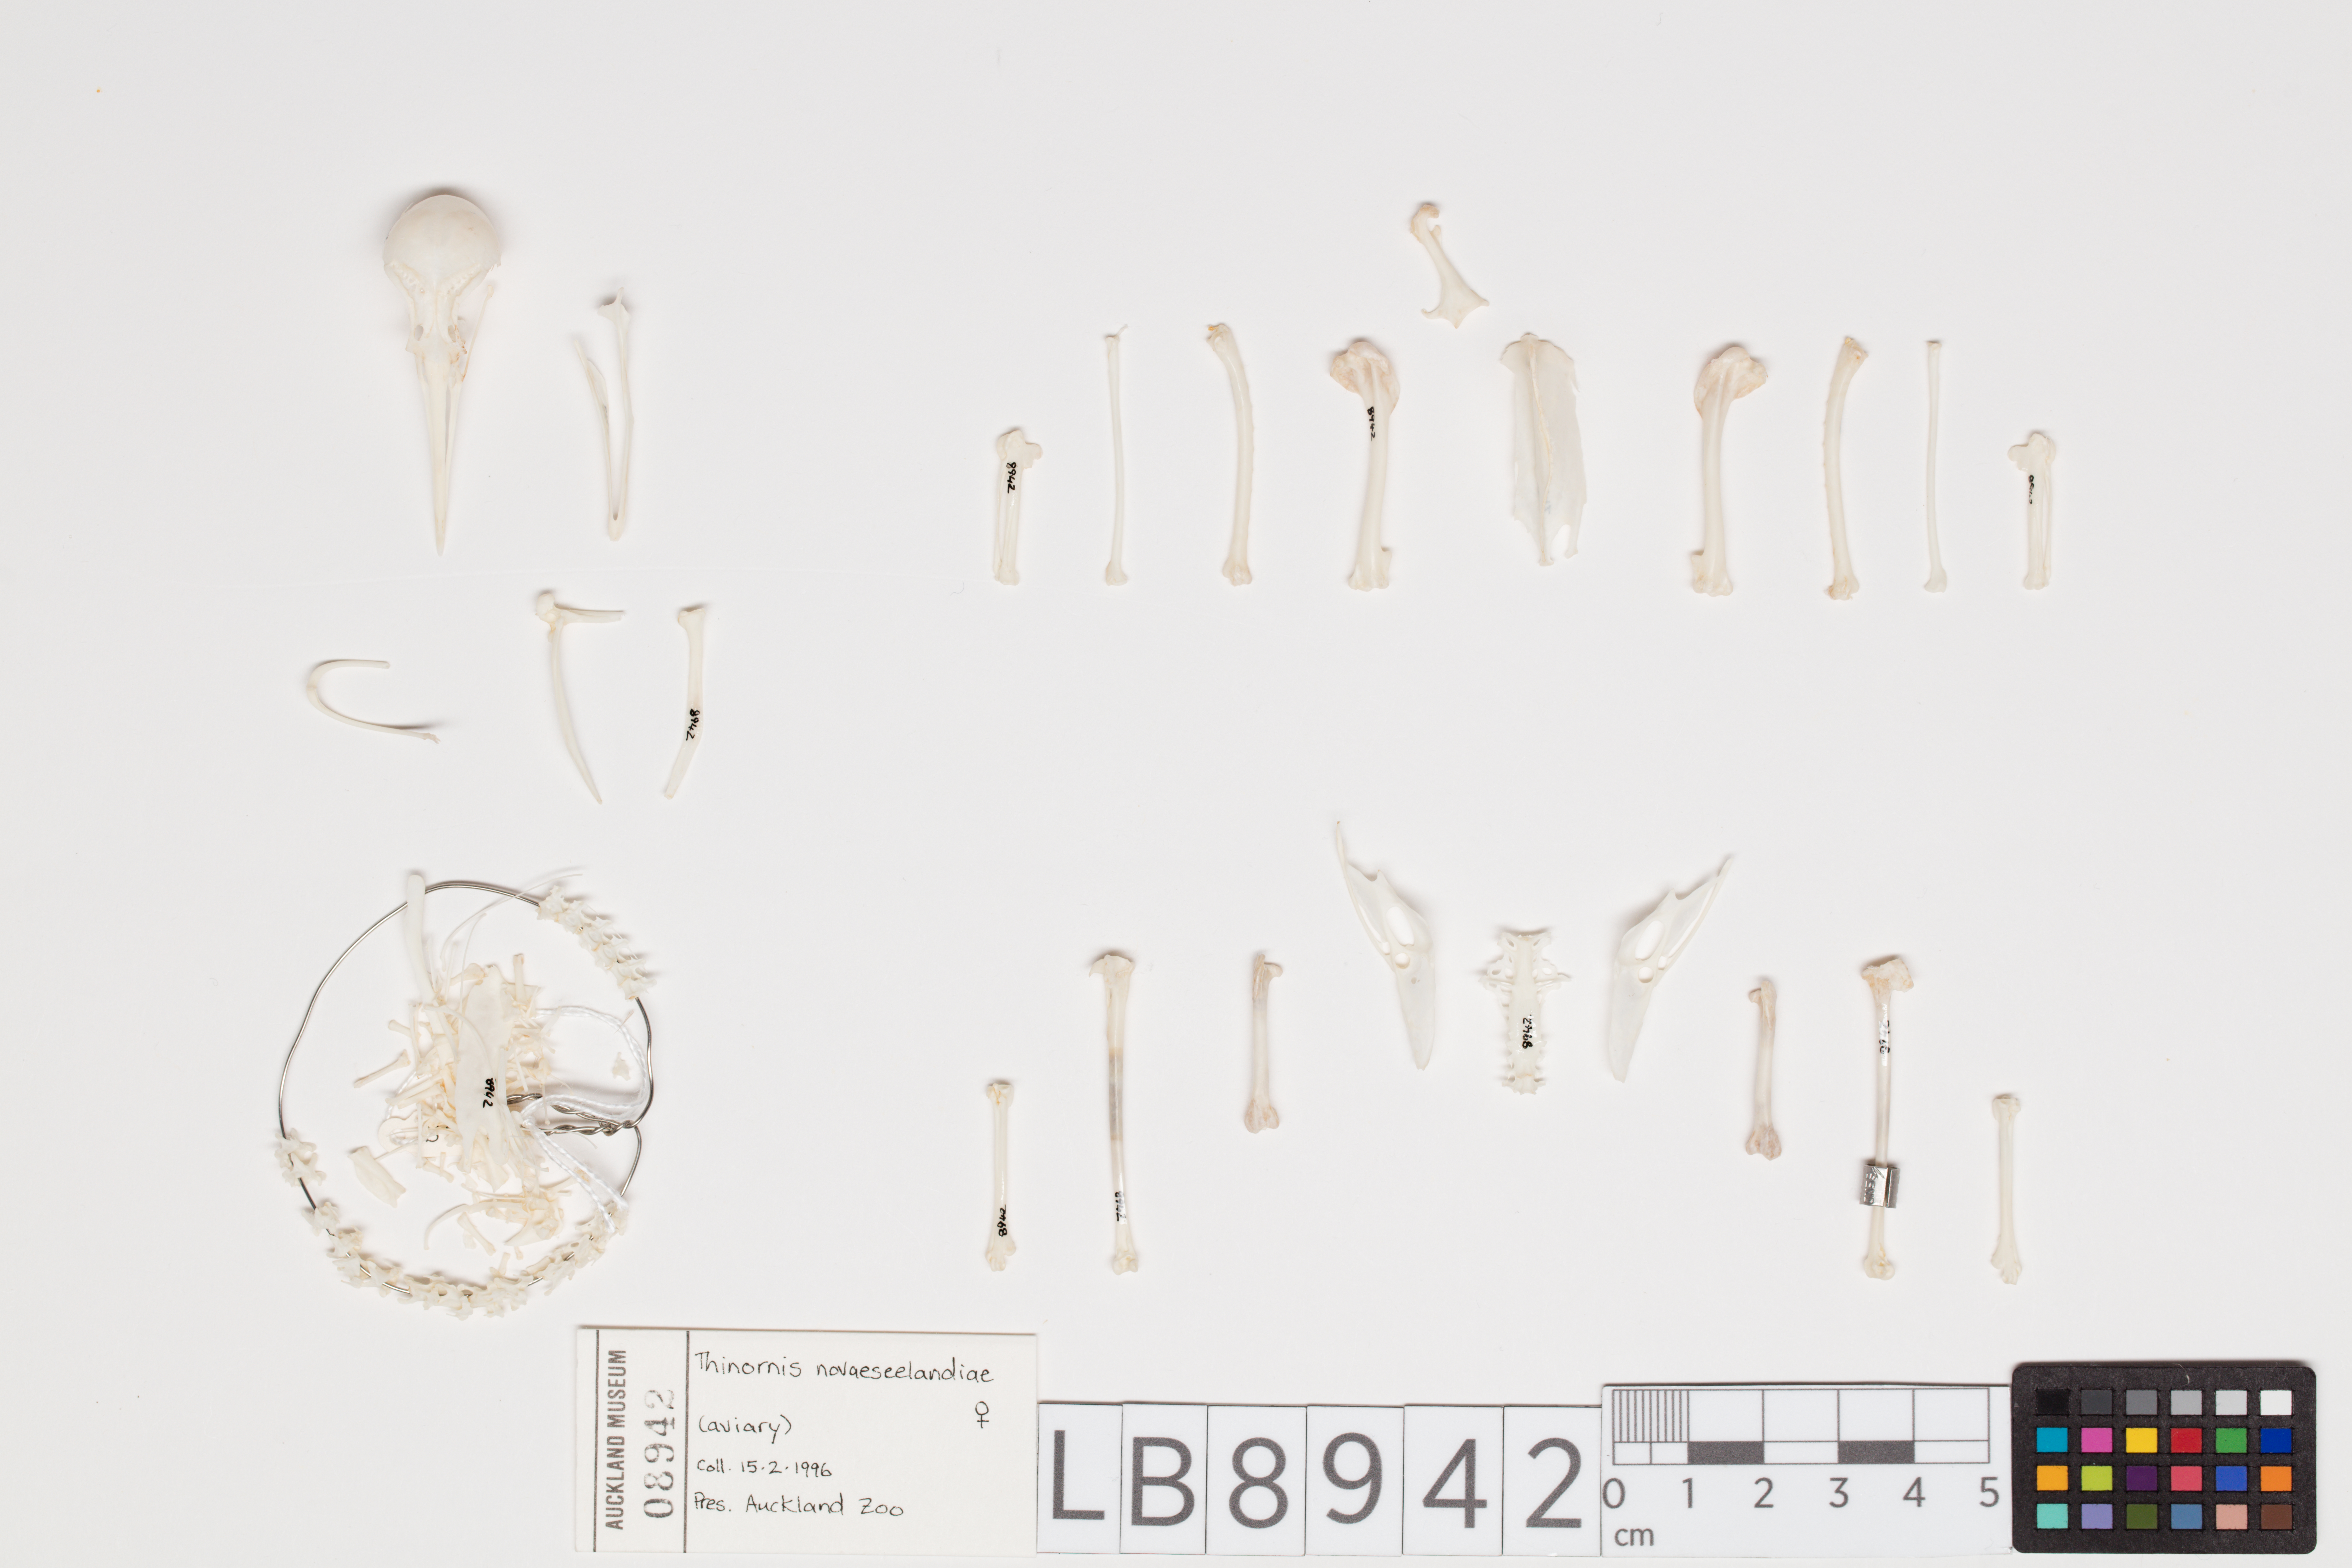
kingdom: Animalia
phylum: Chordata
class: Aves
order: Charadriiformes
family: Charadriidae
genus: Thinornis
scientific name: Thinornis novaeseelandiae
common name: Shore dotterel
